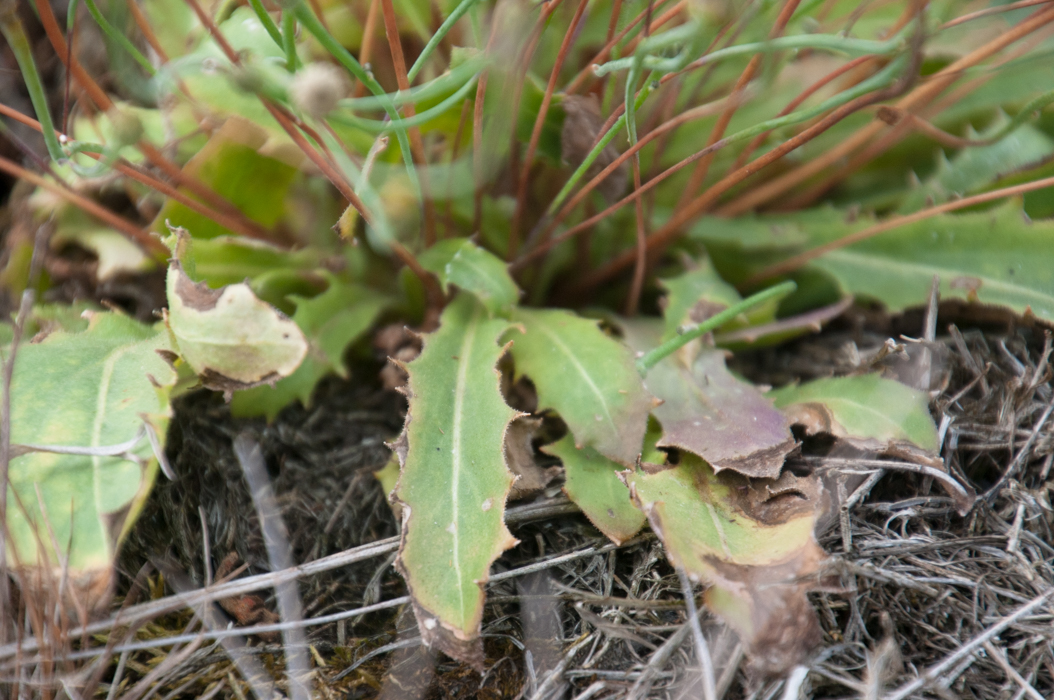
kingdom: Plantae
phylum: Tracheophyta
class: Magnoliopsida
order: Asterales
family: Asteraceae
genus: Arnoseris
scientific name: Arnoseris minima
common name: Lamb's succory
